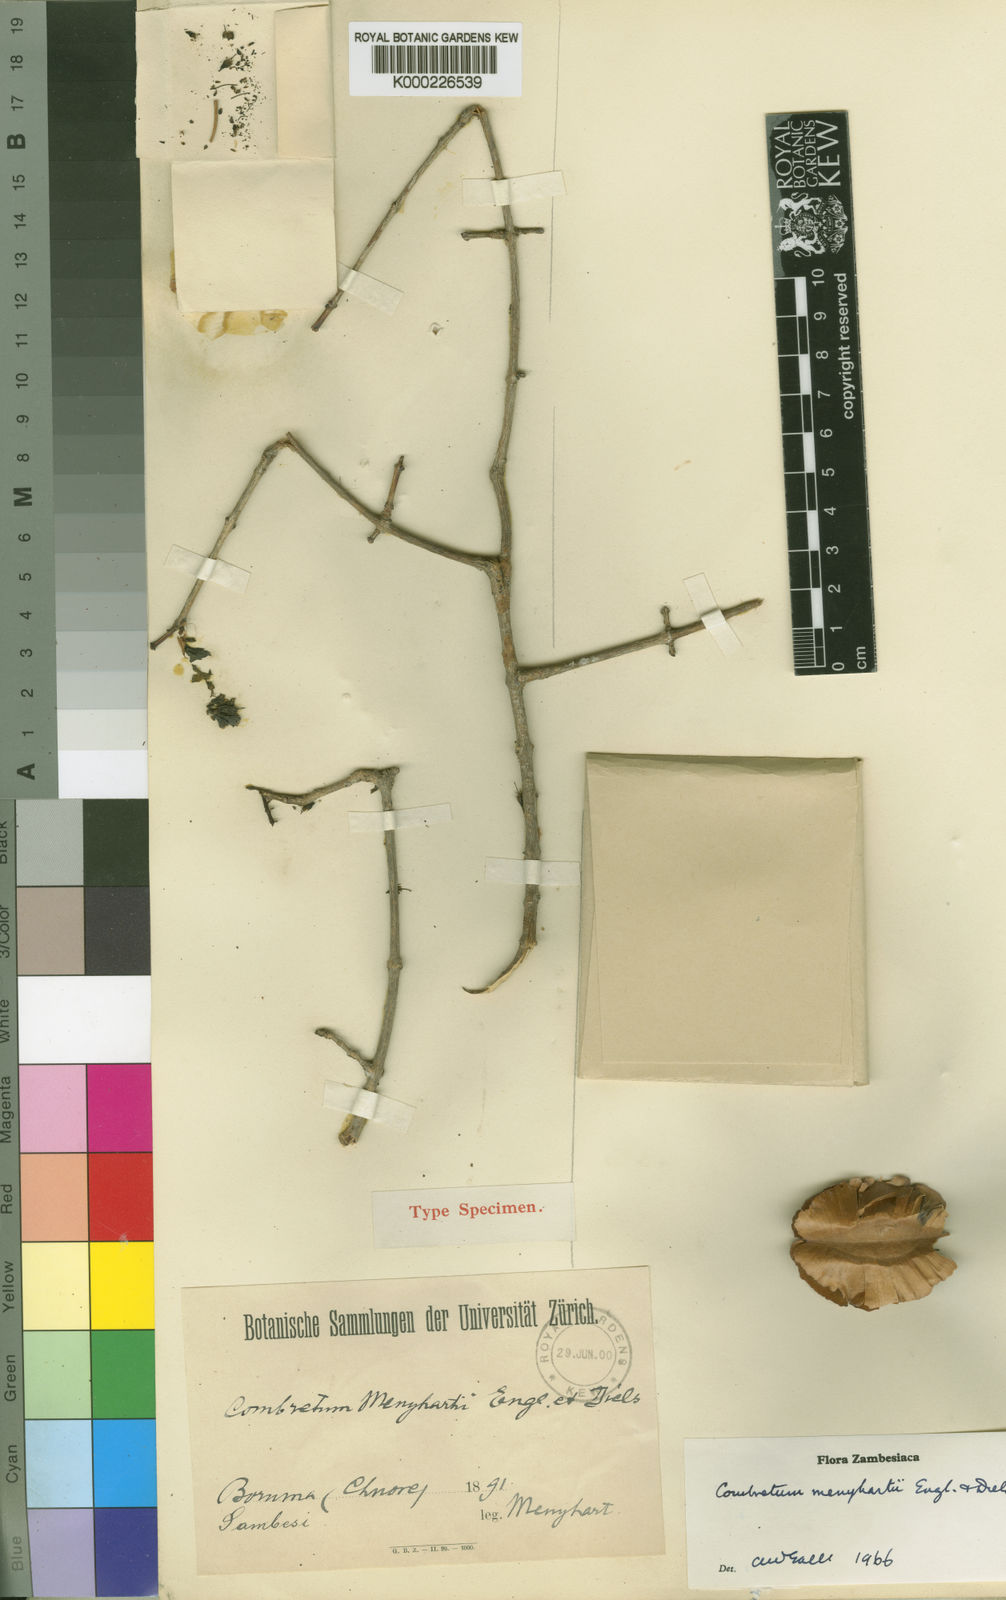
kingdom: Plantae
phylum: Tracheophyta
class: Magnoliopsida
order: Myrtales
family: Combretaceae
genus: Combretum
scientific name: Combretum kirkii
